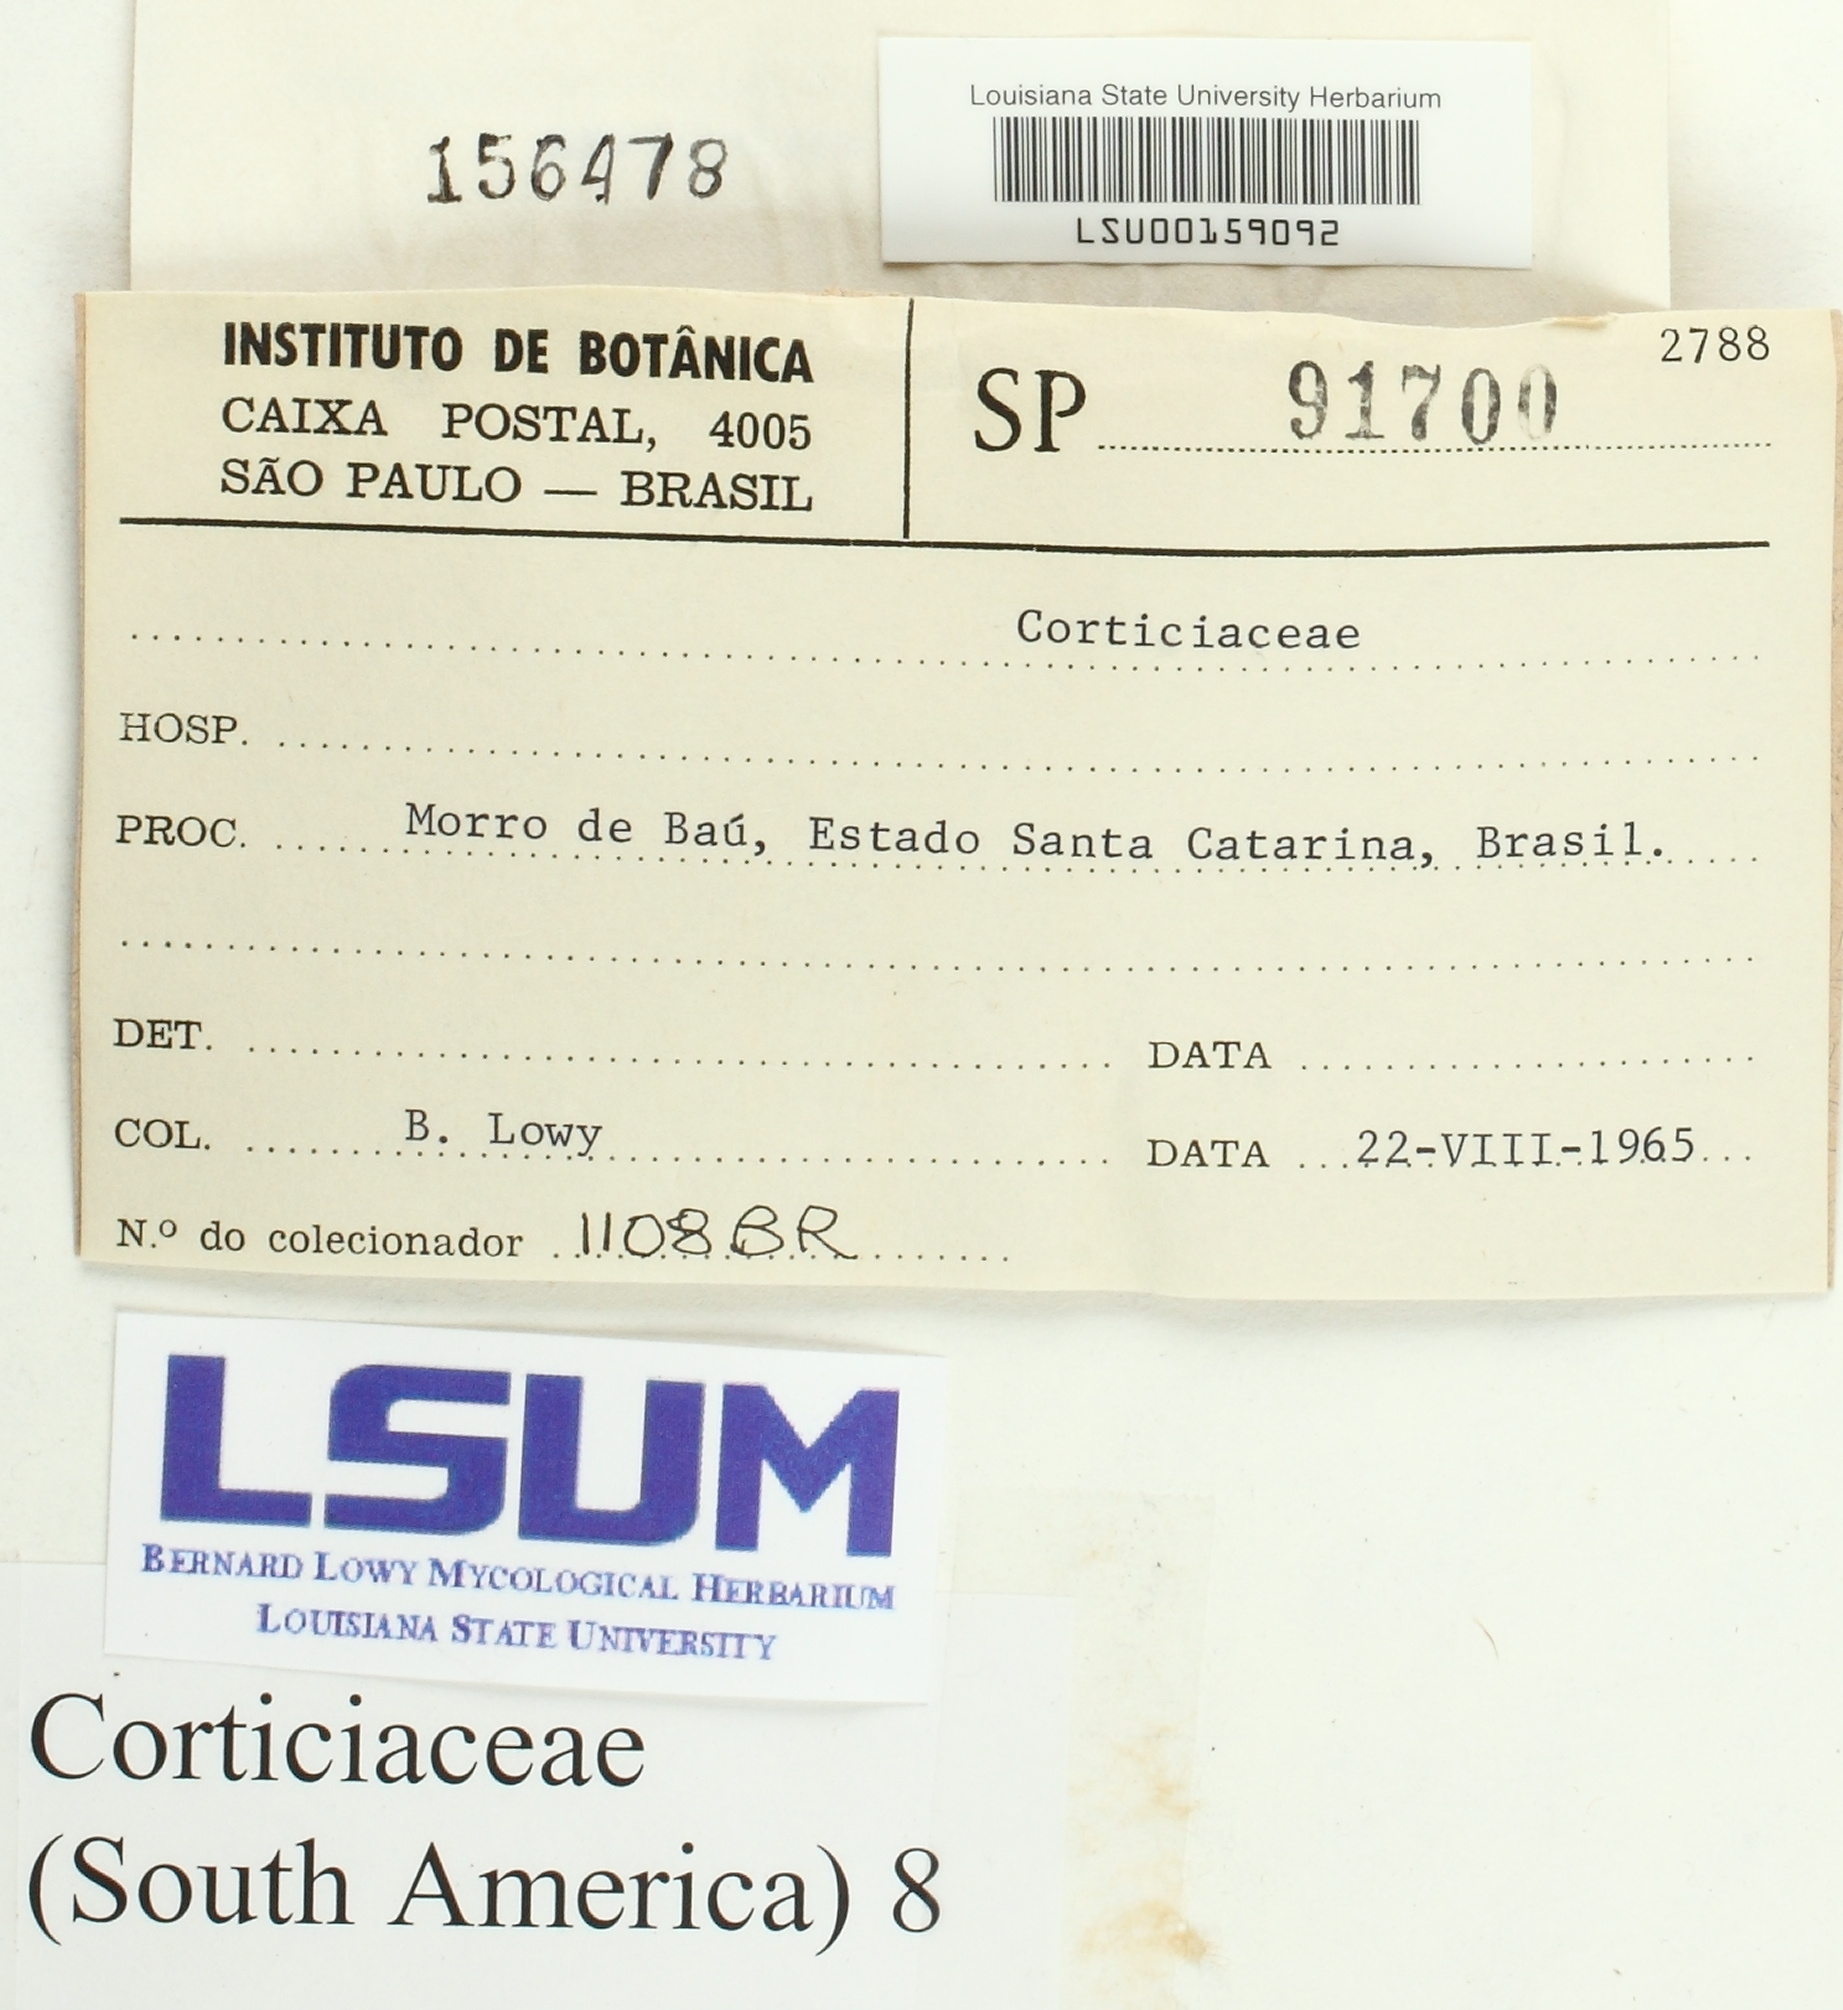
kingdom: Fungi
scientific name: Fungi
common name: Fungi
